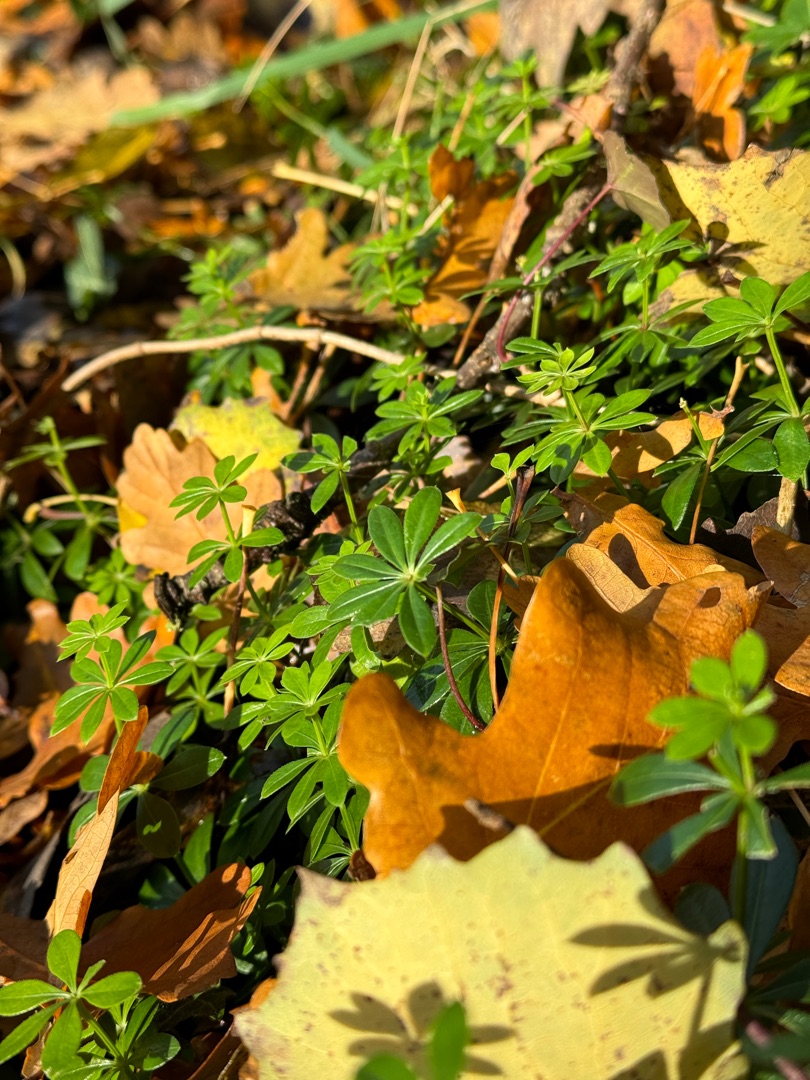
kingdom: Plantae
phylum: Tracheophyta
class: Magnoliopsida
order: Gentianales
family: Rubiaceae
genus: Galium
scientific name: Galium odoratum
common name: Skovmærke
